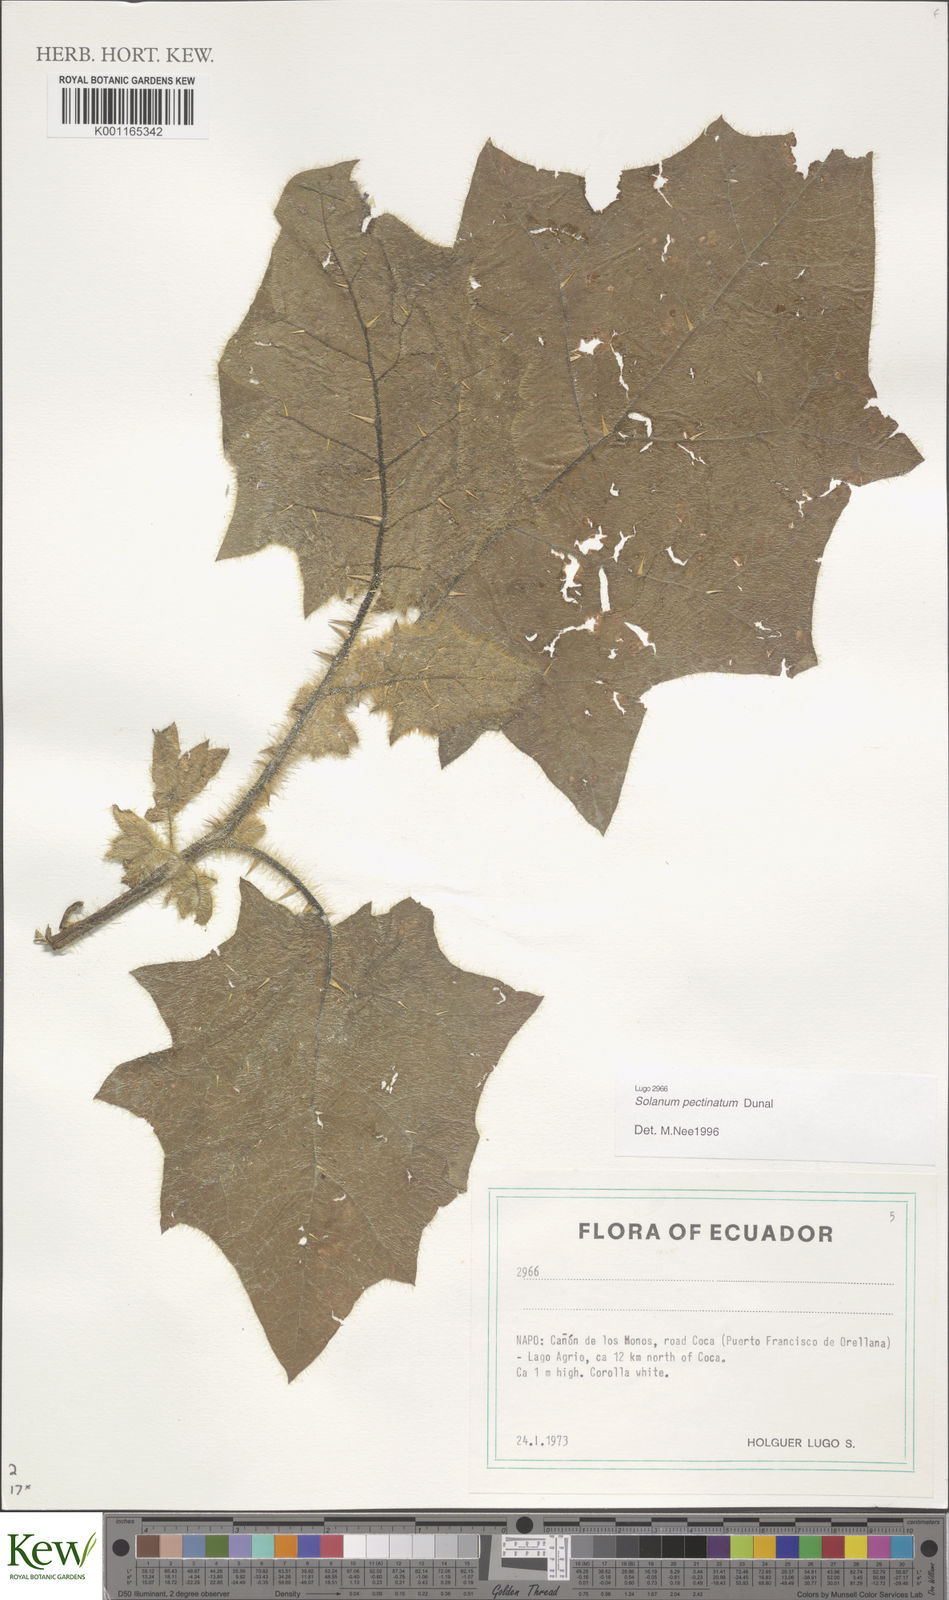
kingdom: Plantae
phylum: Tracheophyta
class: Magnoliopsida
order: Solanales
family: Solanaceae
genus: Solanum
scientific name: Solanum pectinatum
